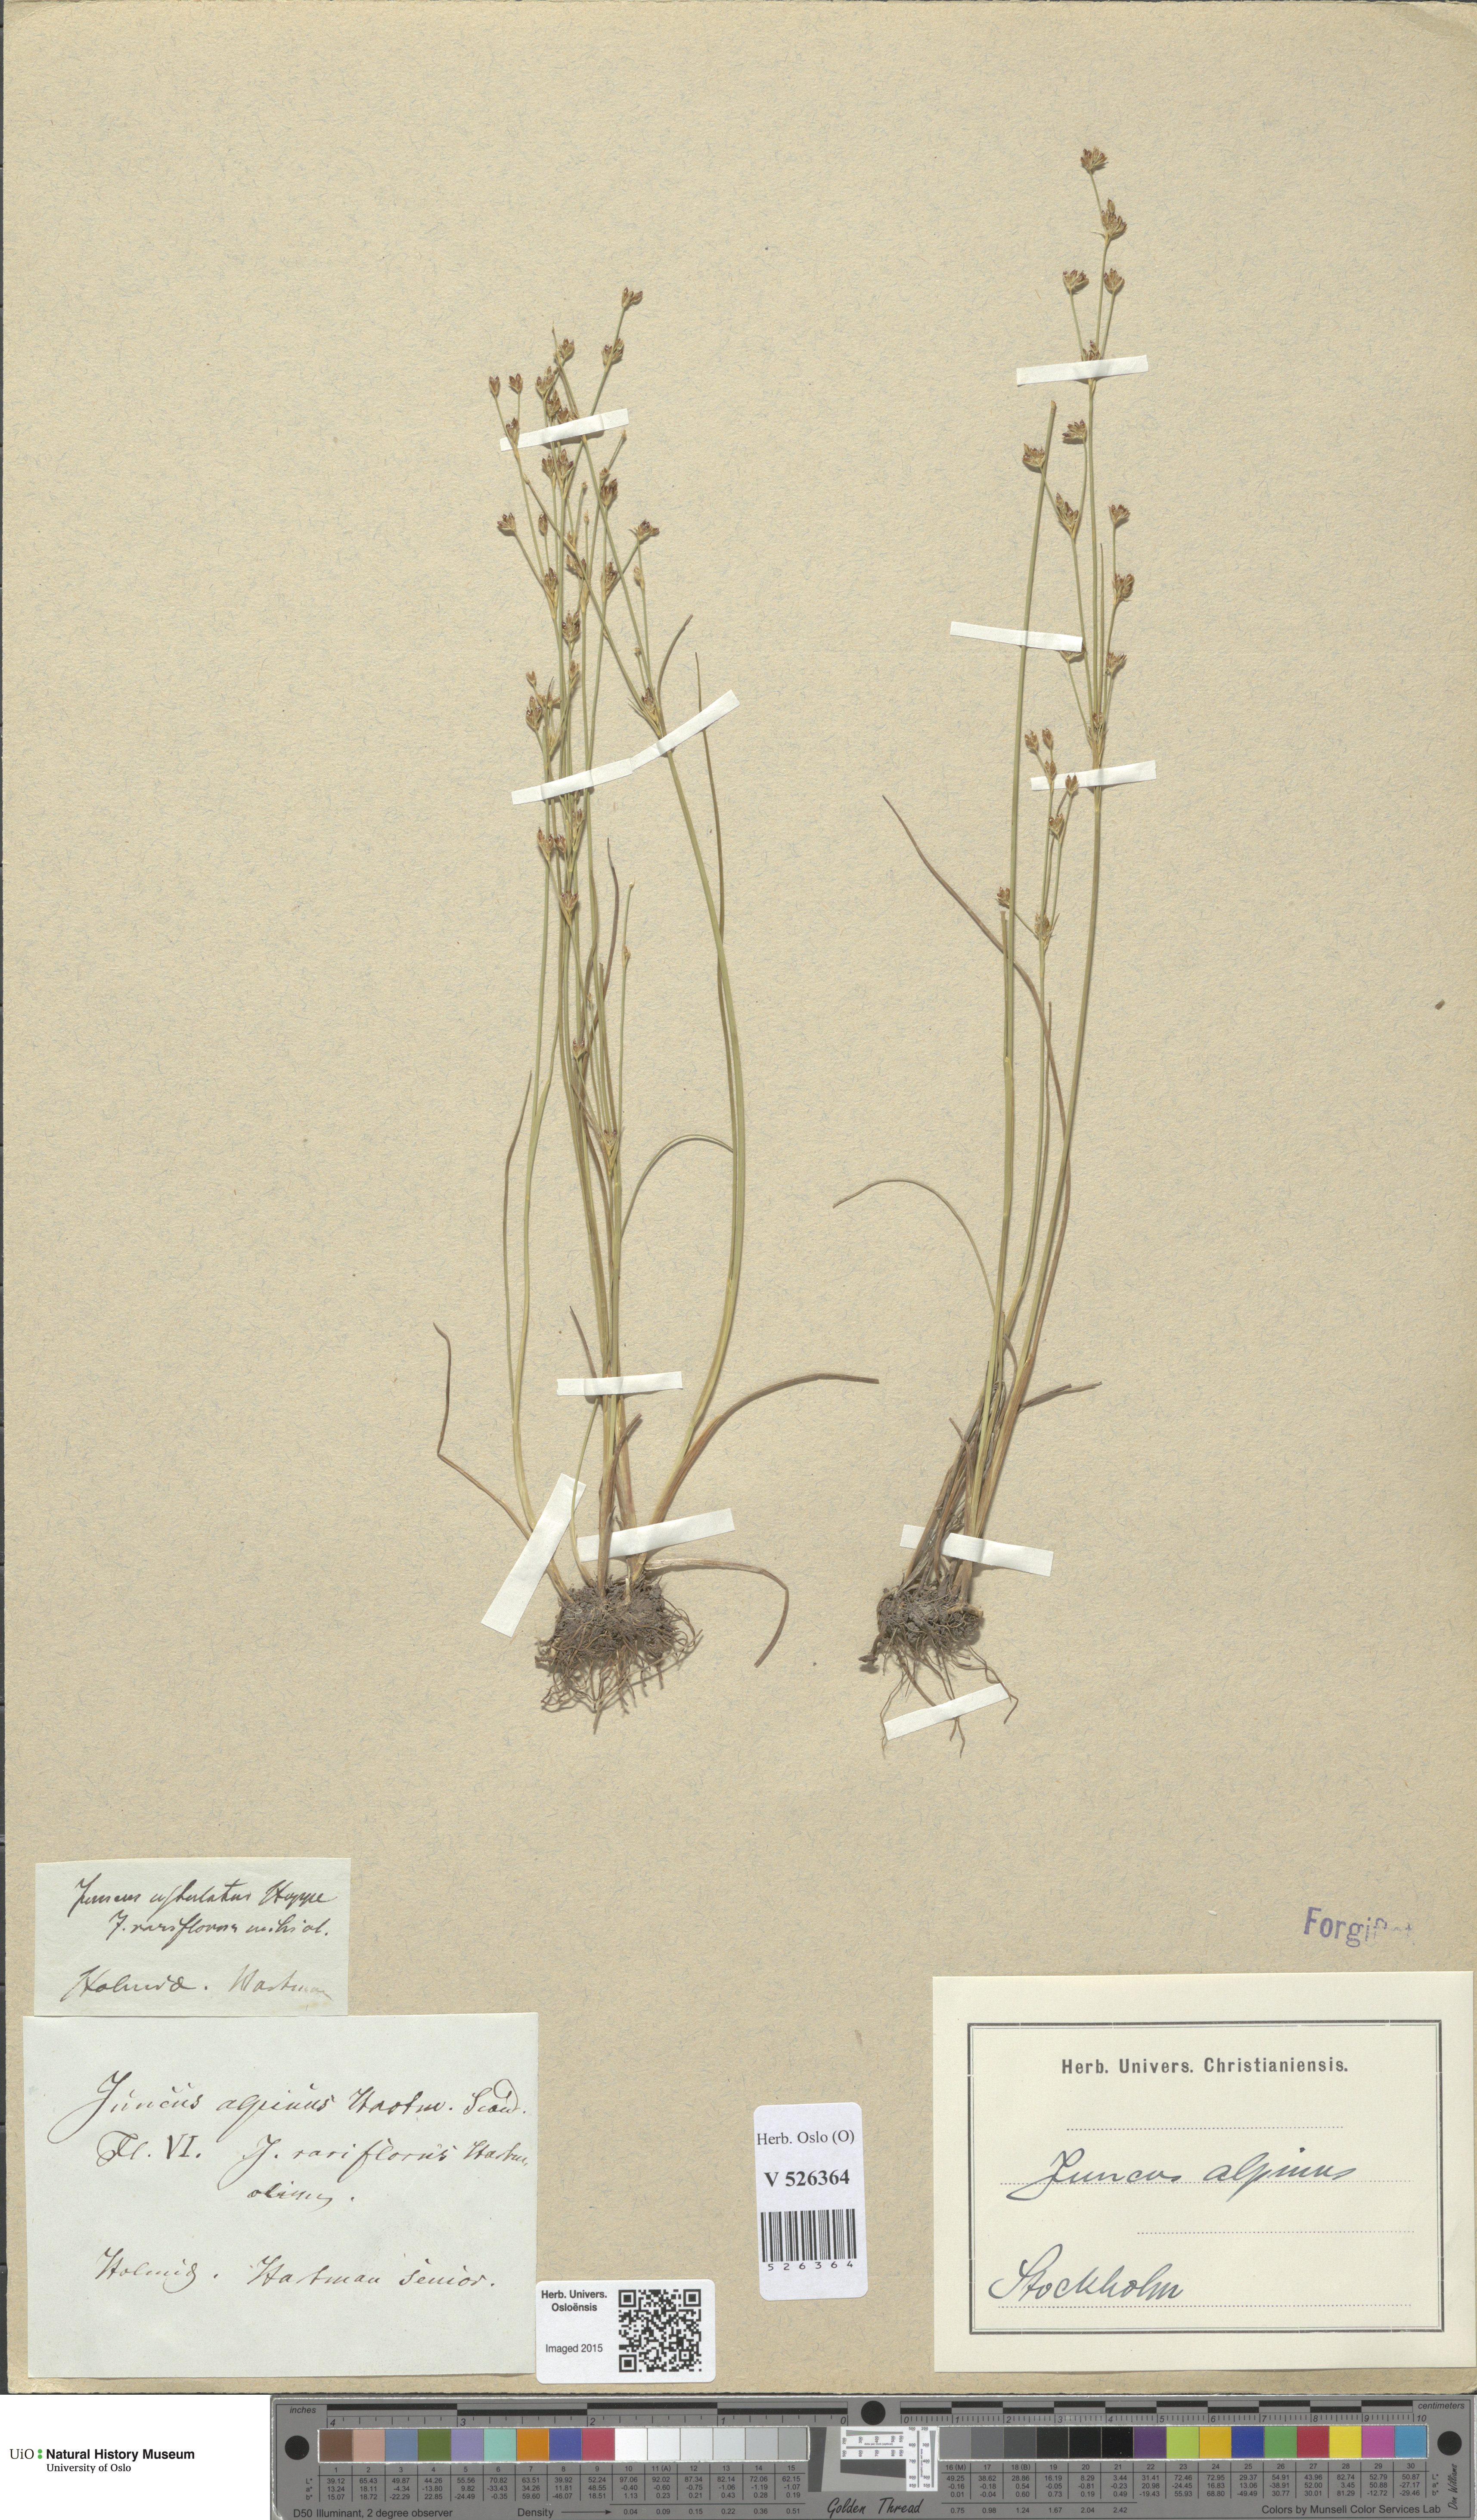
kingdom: Plantae
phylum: Tracheophyta
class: Liliopsida
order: Poales
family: Juncaceae
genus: Juncus
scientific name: Juncus alpinoarticulatus
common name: Alpine rush
